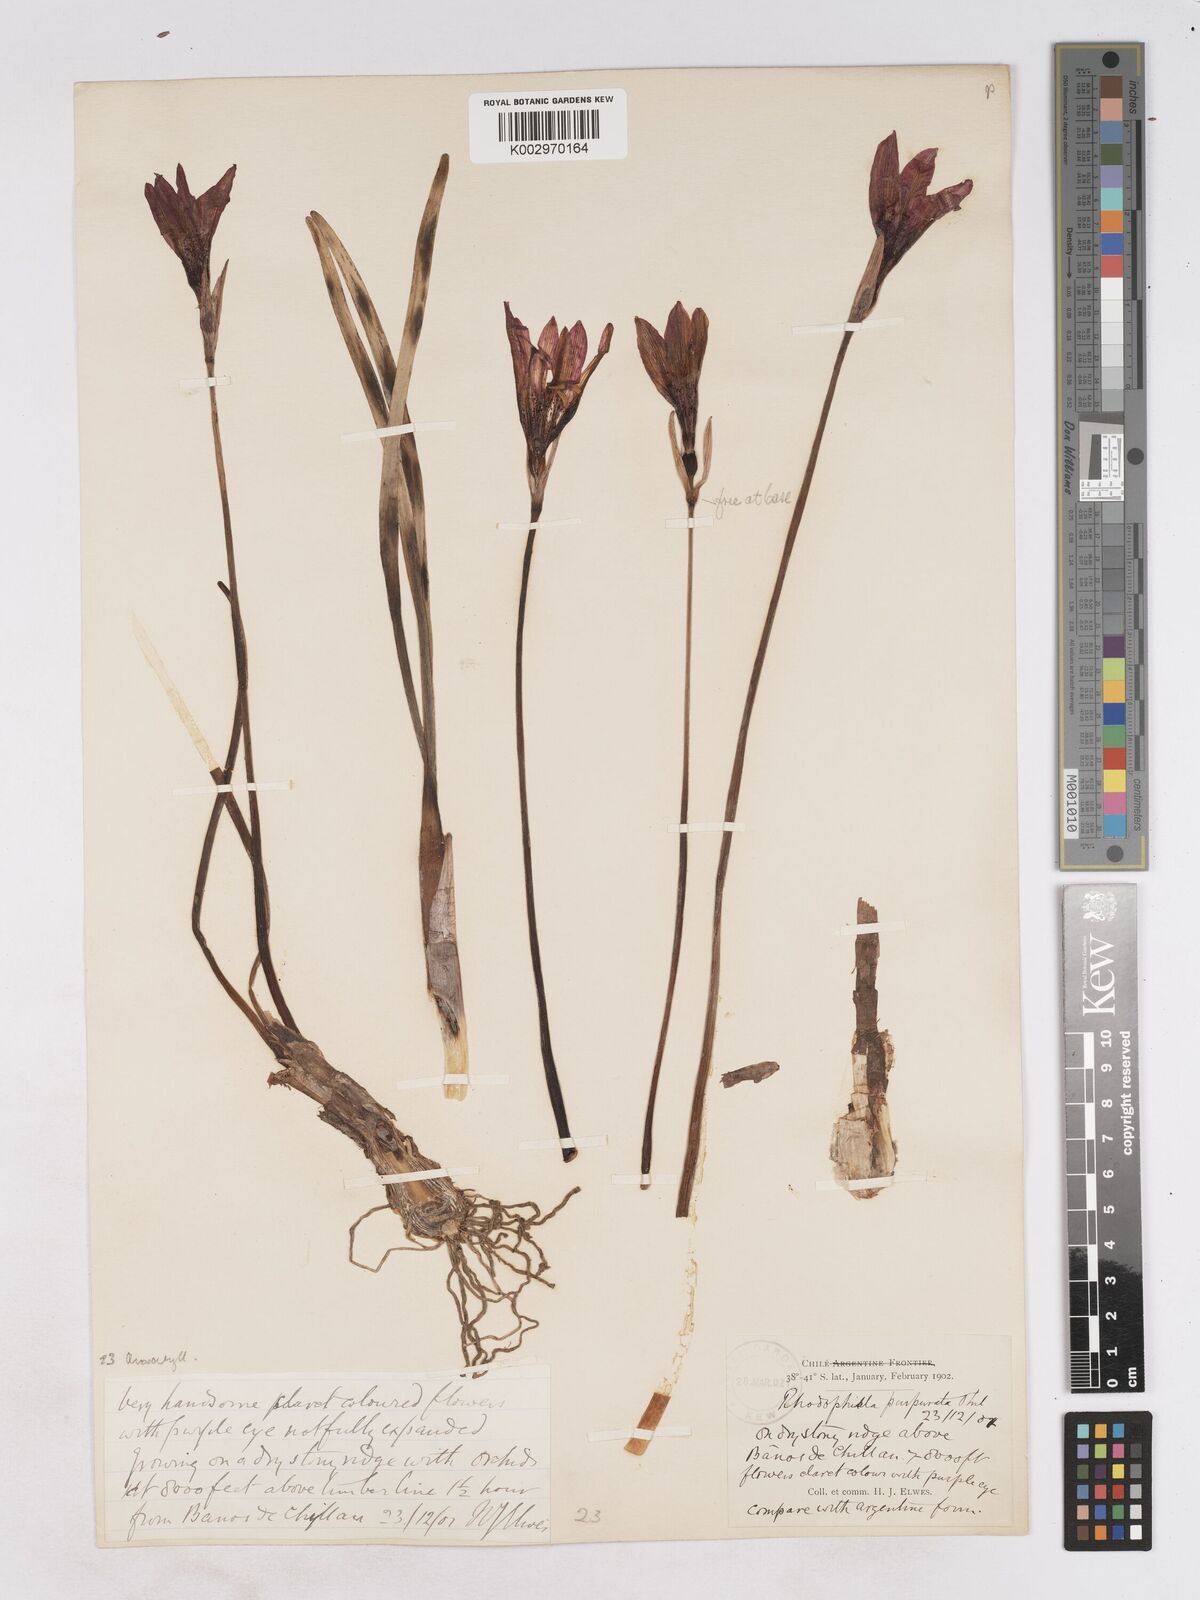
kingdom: Plantae
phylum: Tracheophyta
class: Liliopsida
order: Asparagales
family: Amaryllidaceae
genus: Rhodolirium
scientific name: Rhodolirium andicola
